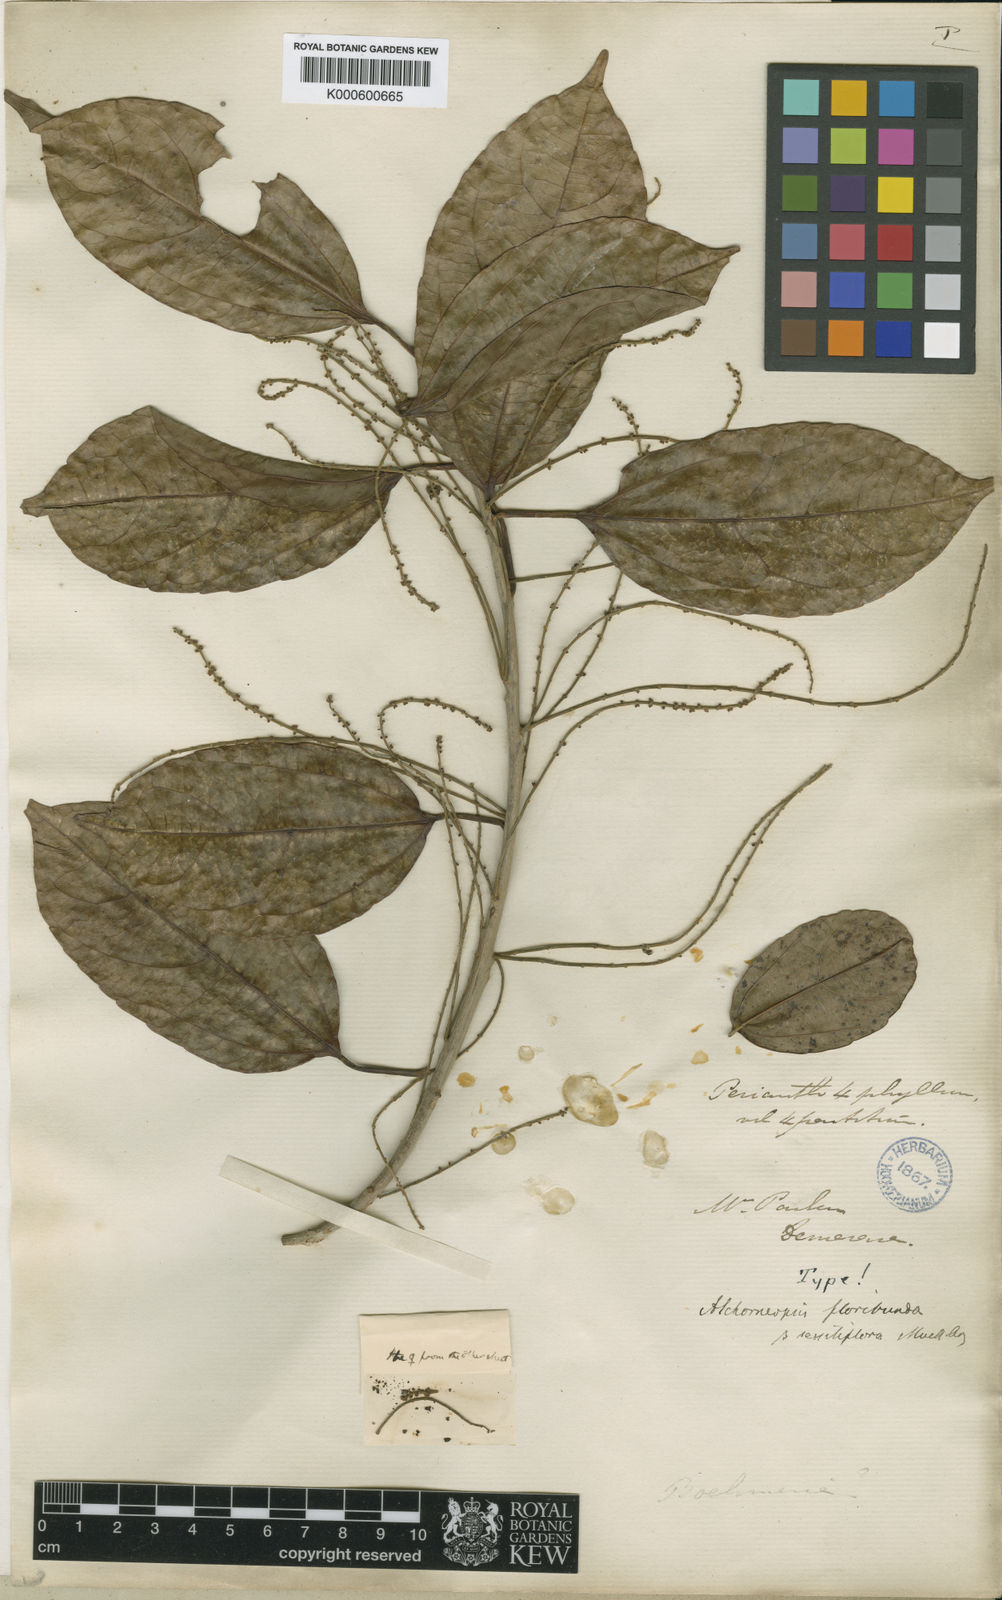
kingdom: Plantae
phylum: Tracheophyta
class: Magnoliopsida
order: Malpighiales
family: Euphorbiaceae
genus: Alchorneopsis
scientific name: Alchorneopsis
